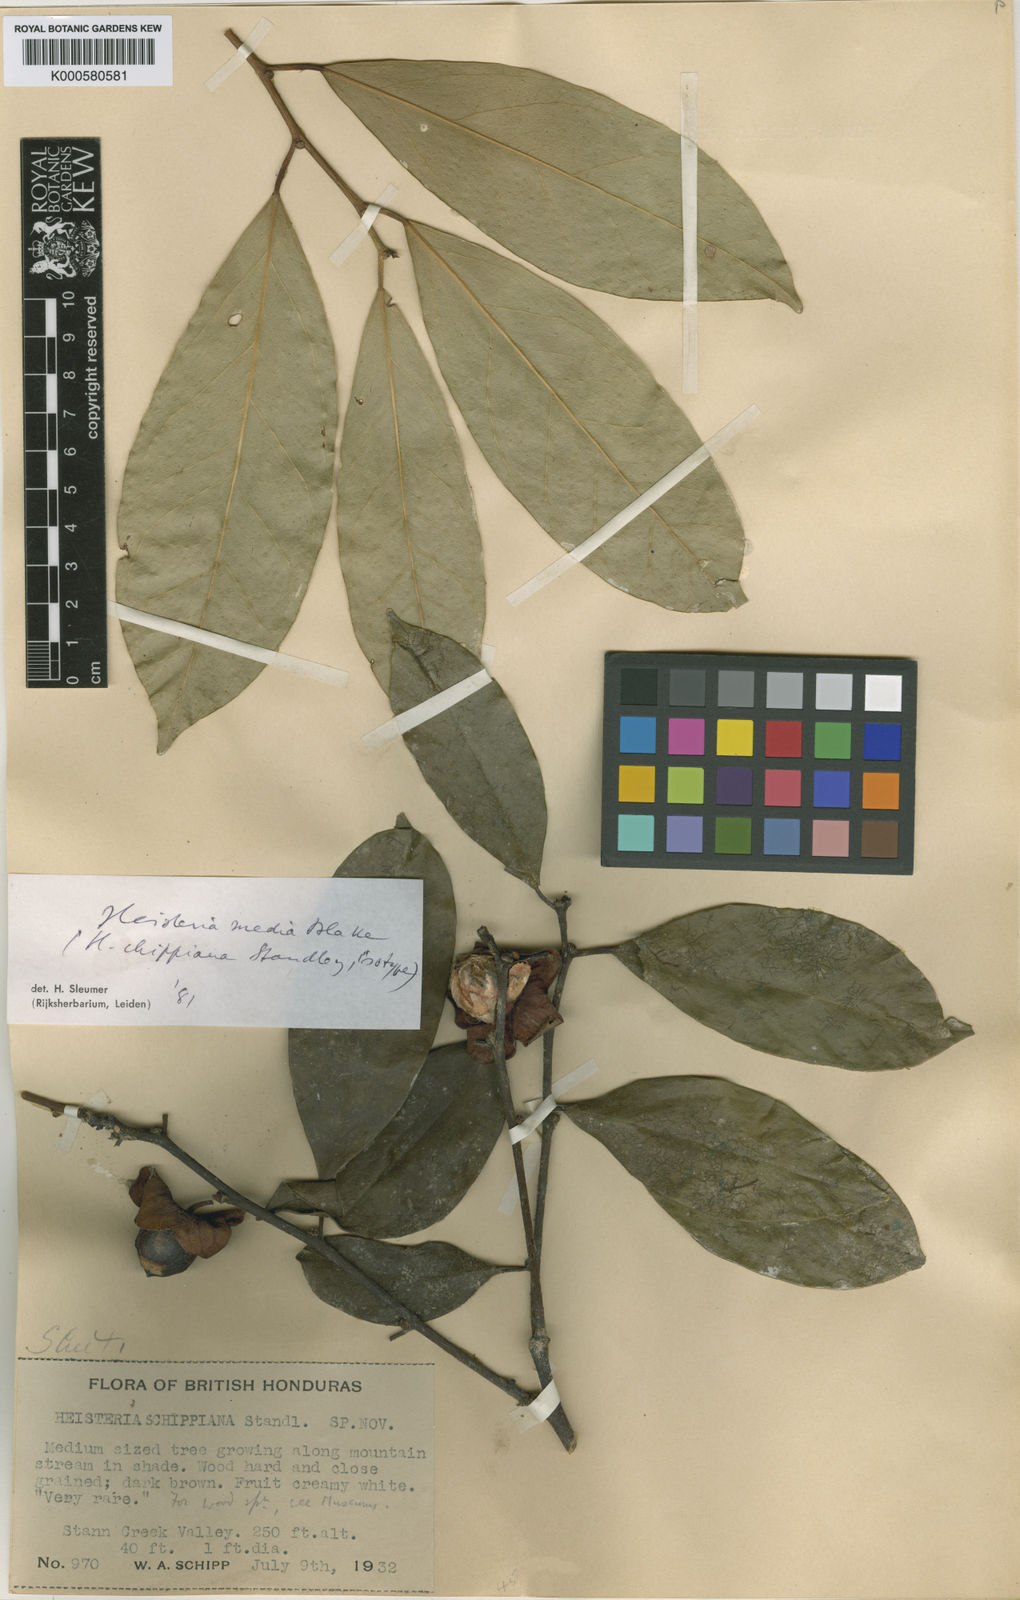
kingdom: Plantae
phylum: Tracheophyta
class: Magnoliopsida
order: Santalales
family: Erythropalaceae
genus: Heisteria
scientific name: Heisteria media
